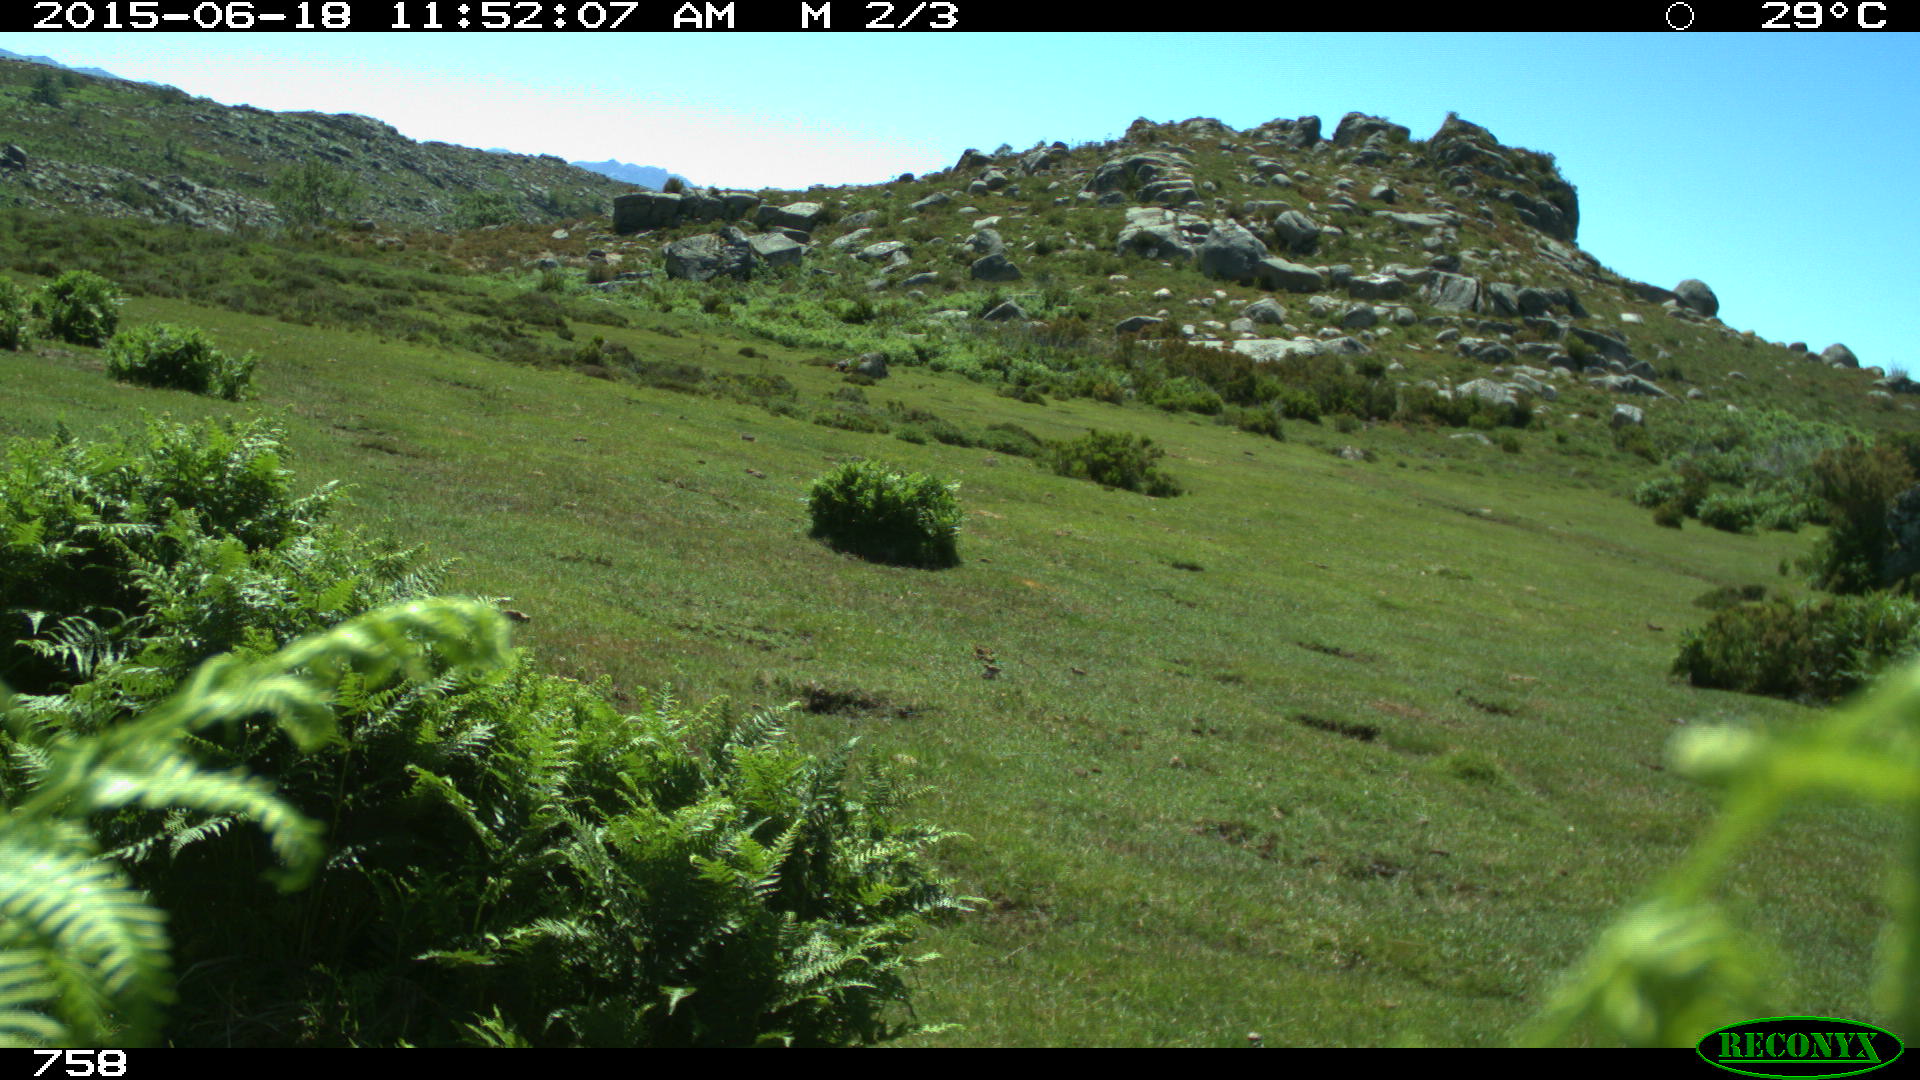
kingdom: Animalia
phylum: Chordata
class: Mammalia
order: Artiodactyla
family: Bovidae
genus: Bos
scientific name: Bos taurus
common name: Domesticated cattle
